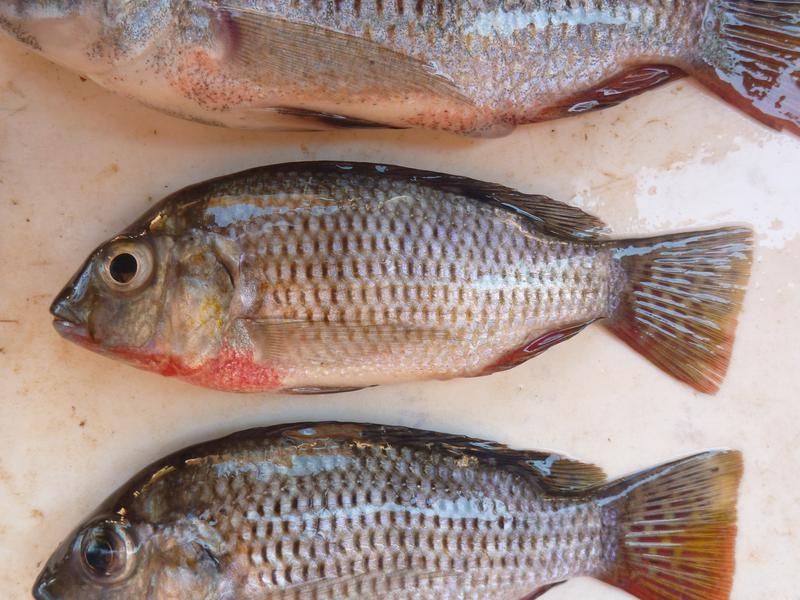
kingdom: Animalia
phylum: Chordata
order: Perciformes
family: Cichlidae
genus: Coptodon
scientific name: Coptodon rendalli
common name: Redbreast tilapia
